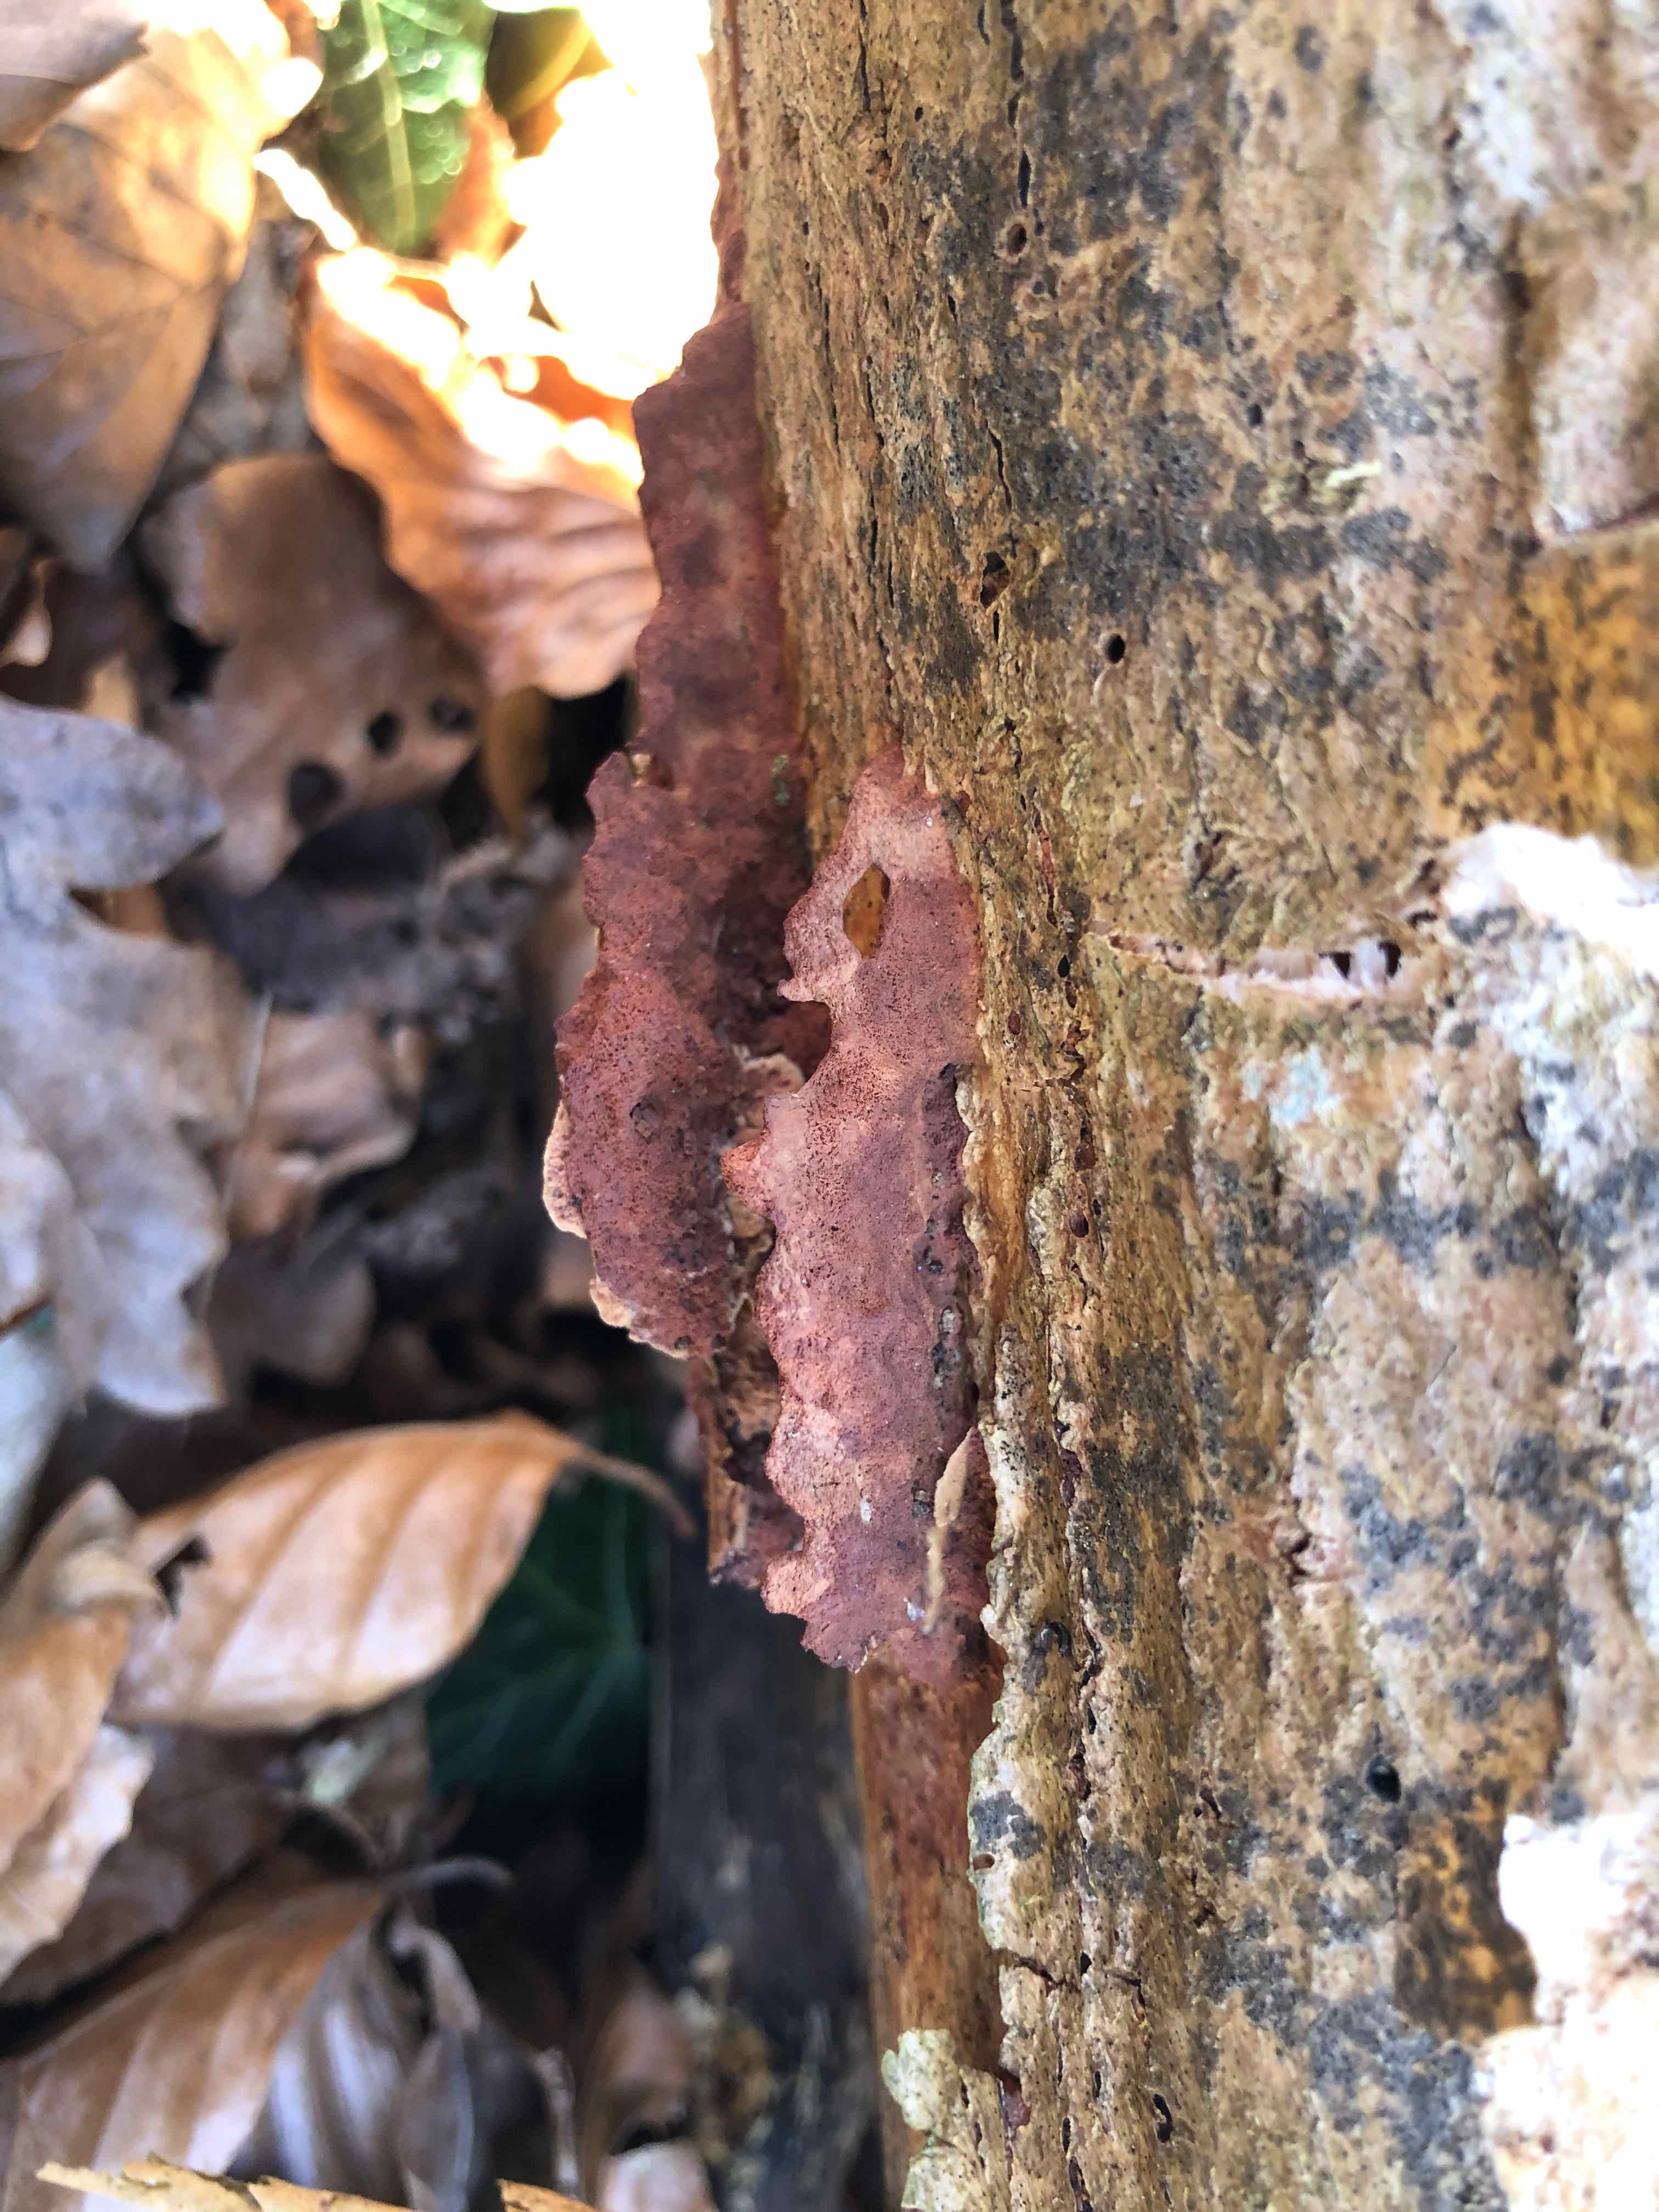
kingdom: Fungi
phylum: Basidiomycota
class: Agaricomycetes
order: Polyporales
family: Phanerochaetaceae
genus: Hapalopilus
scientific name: Hapalopilus rutilans
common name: rødlig okkerporesvamp
